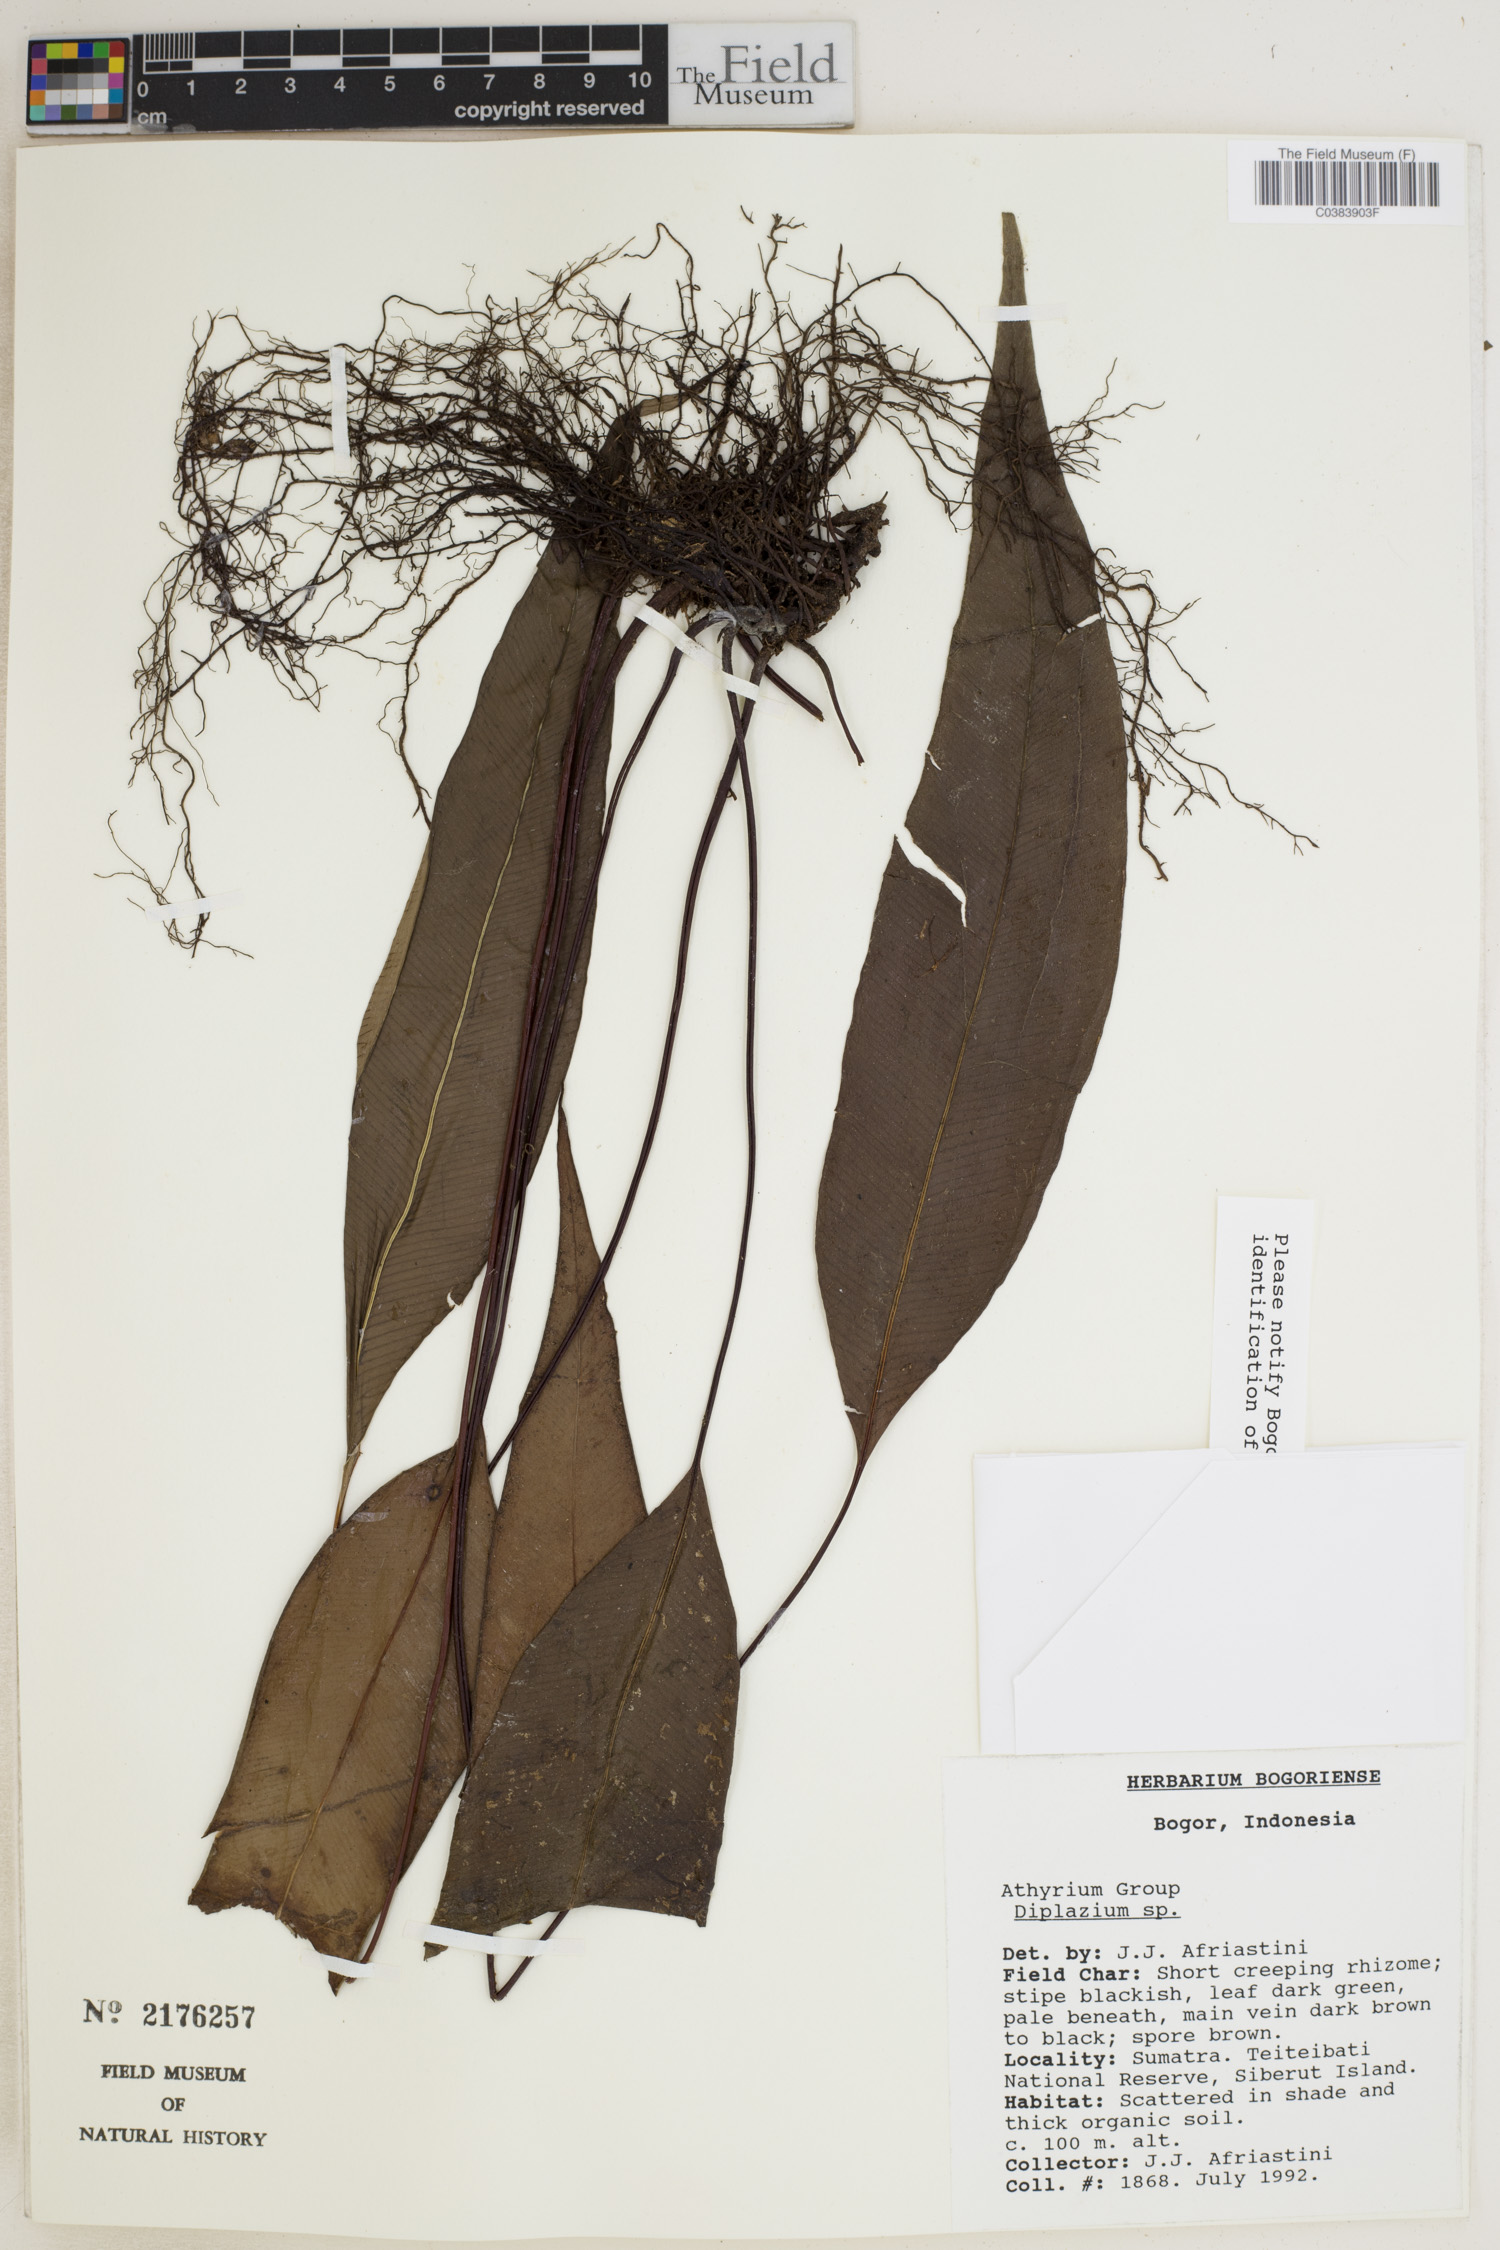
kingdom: Plantae
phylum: Tracheophyta
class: Polypodiopsida
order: Polypodiales
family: Athyriaceae
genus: Diplazium
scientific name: Diplazium
